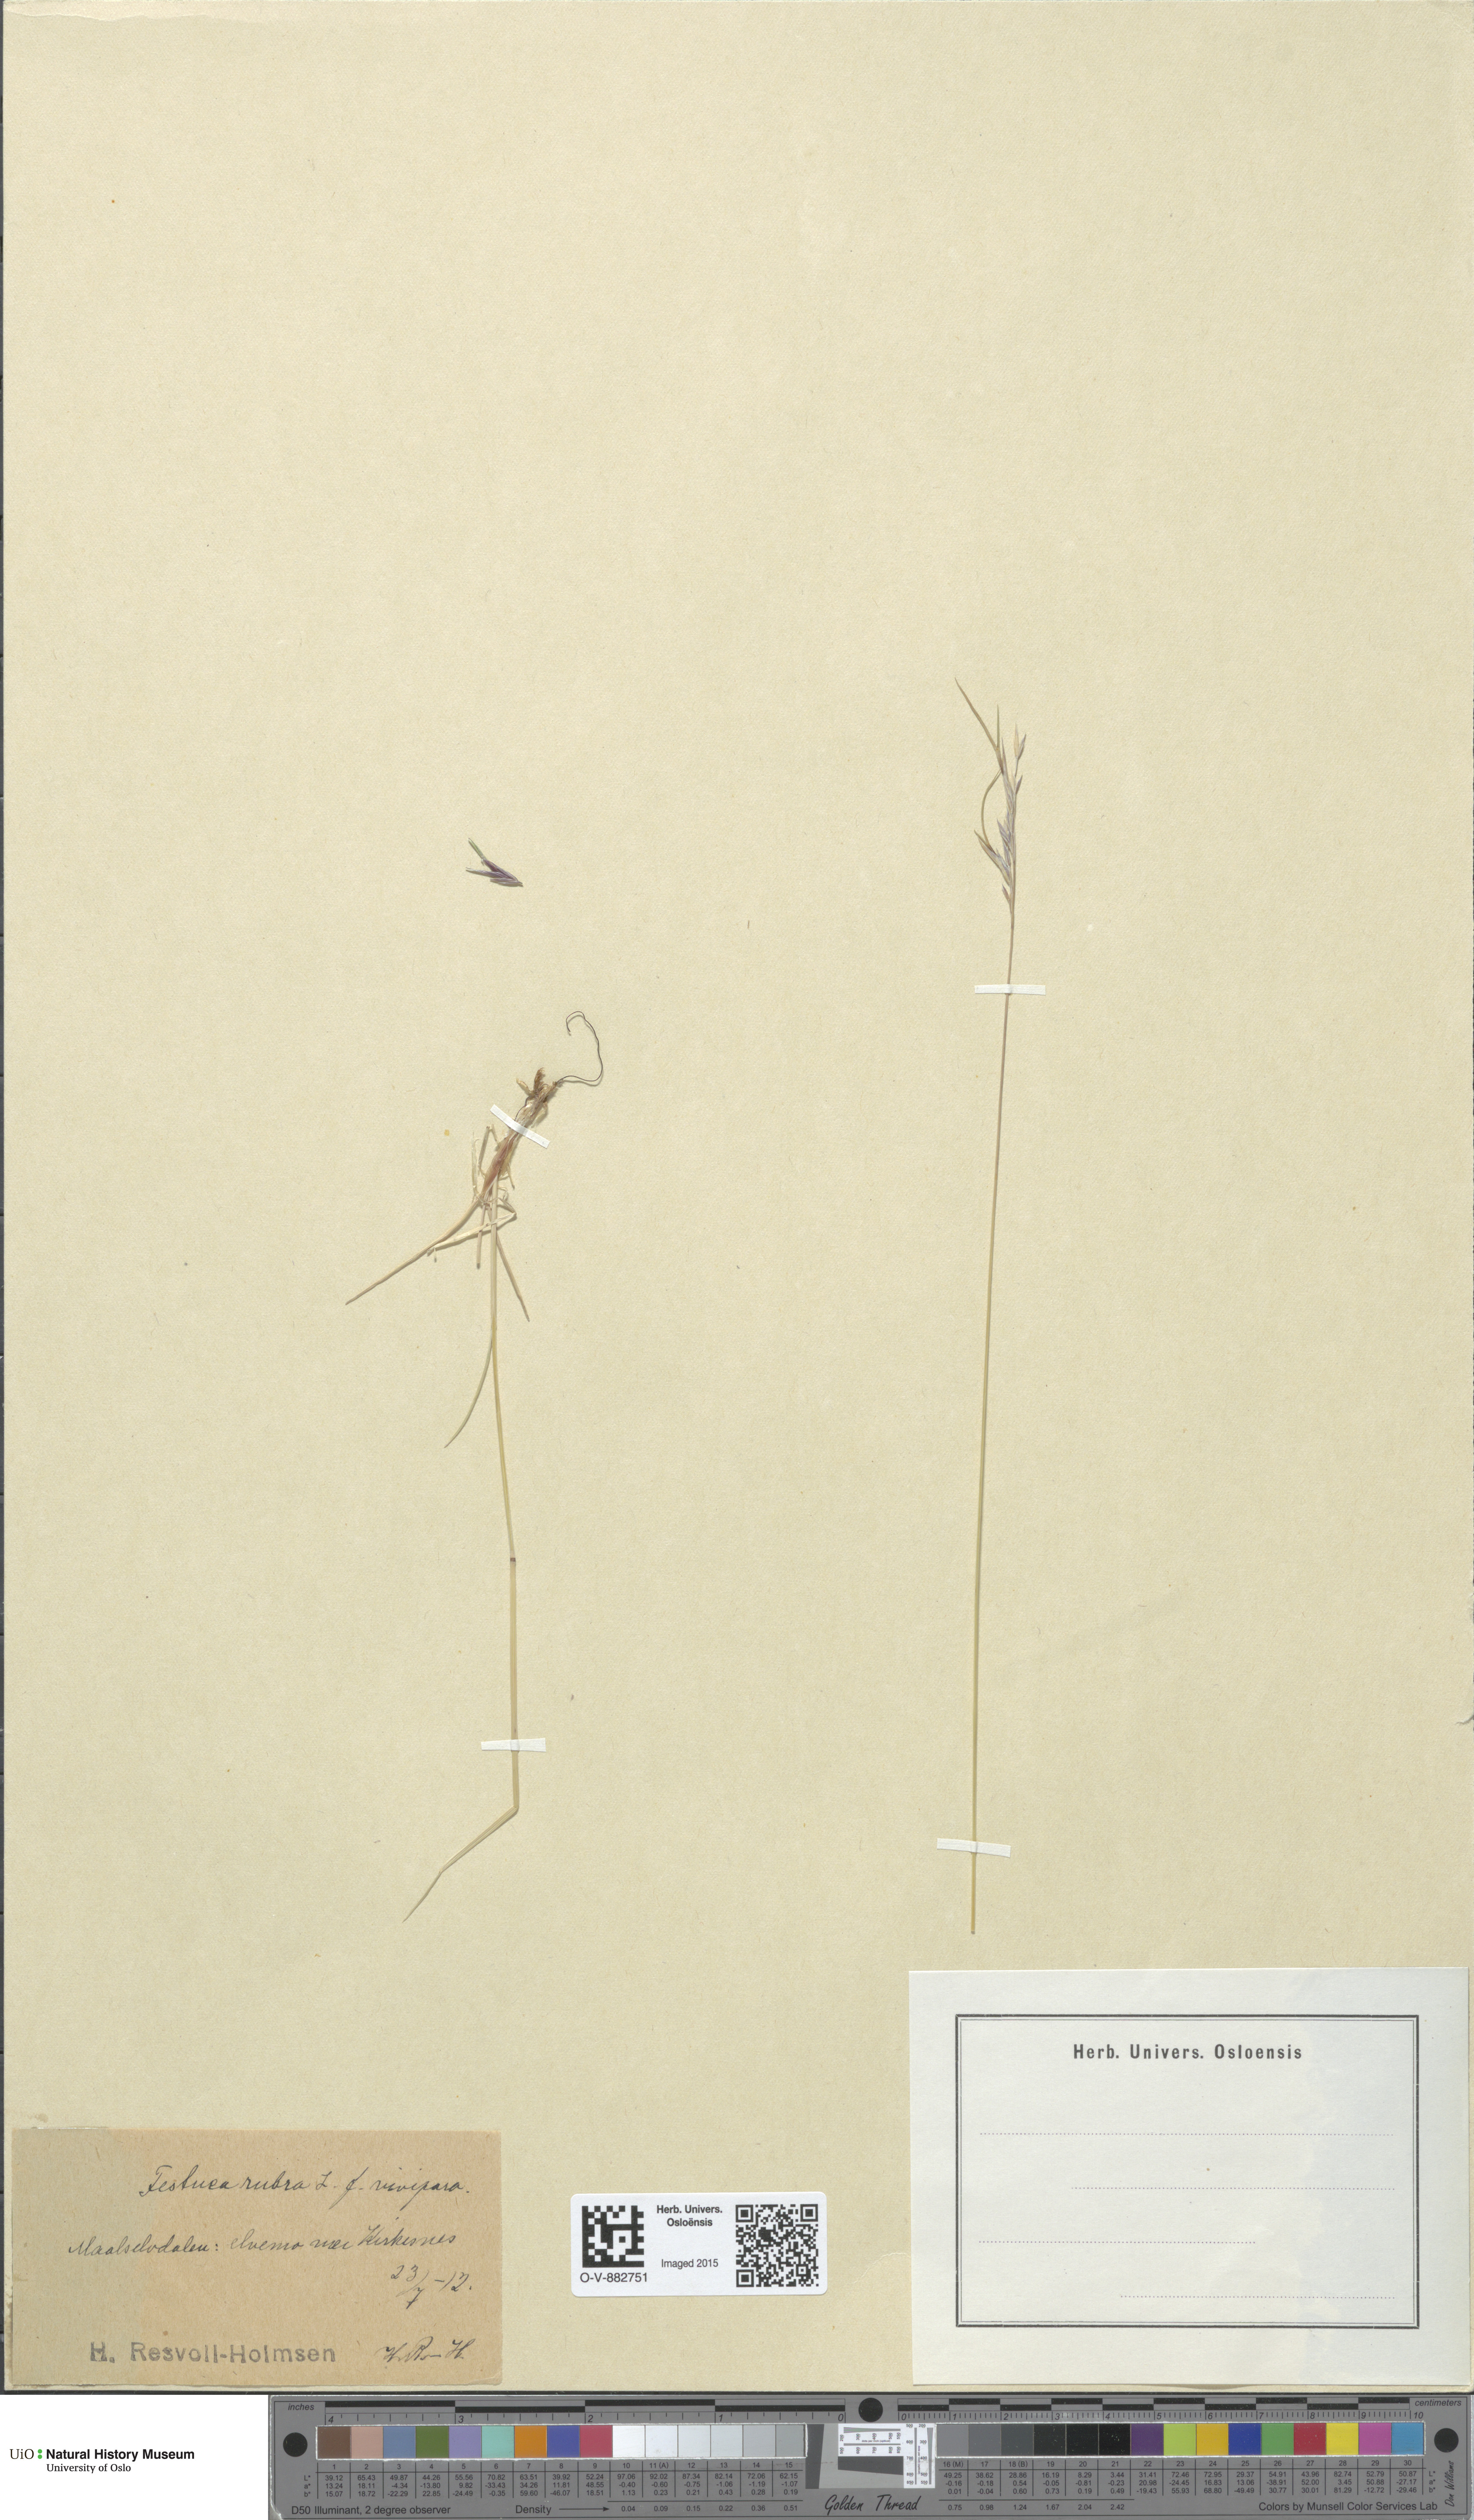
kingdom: Plantae
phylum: Tracheophyta
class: Liliopsida
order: Poales
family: Poaceae
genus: Festuca
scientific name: Festuca rubra
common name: Red fescue
